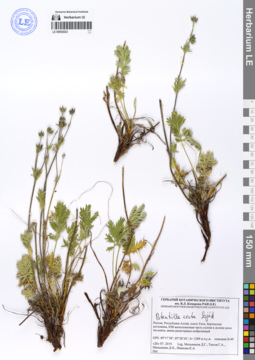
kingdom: Plantae
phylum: Tracheophyta
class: Magnoliopsida
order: Rosales
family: Rosaceae
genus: Potentilla
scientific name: Potentilla exuta
